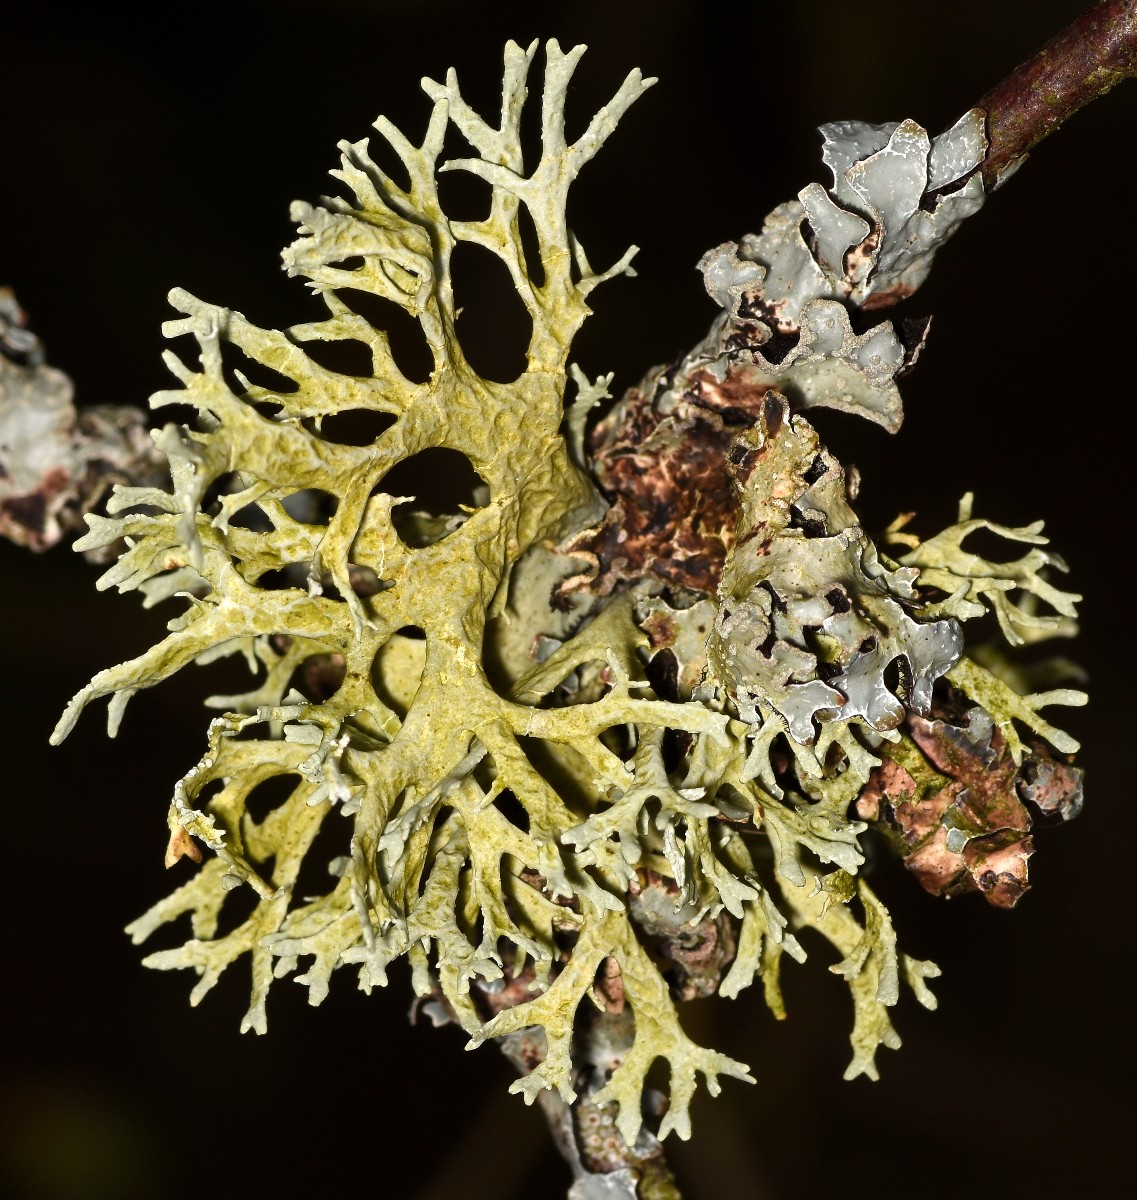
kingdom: Fungi
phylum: Ascomycota
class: Lecanoromycetes
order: Lecanorales
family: Parmeliaceae
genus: Evernia
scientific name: Evernia prunastri
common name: almindelig slåenlav
